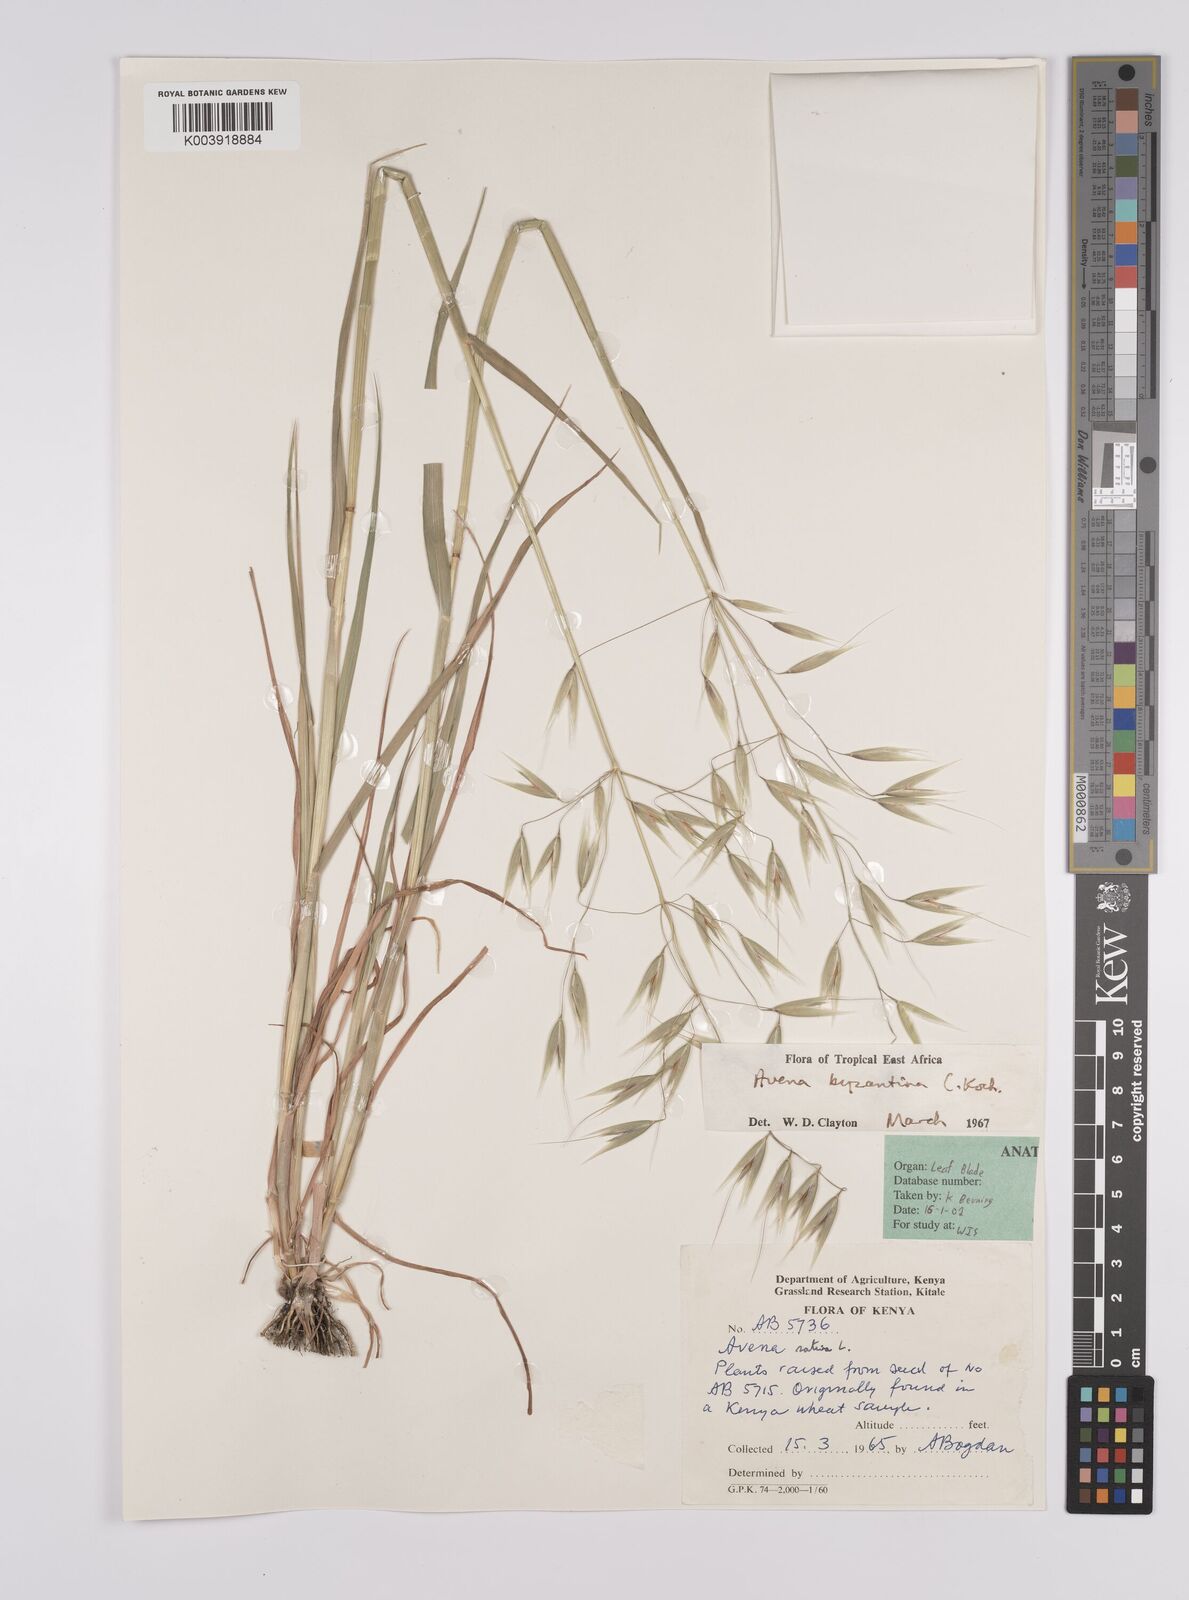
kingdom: Plantae
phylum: Tracheophyta
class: Liliopsida
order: Poales
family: Poaceae
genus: Avena
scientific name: Avena byzantina
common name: Algerian oat
